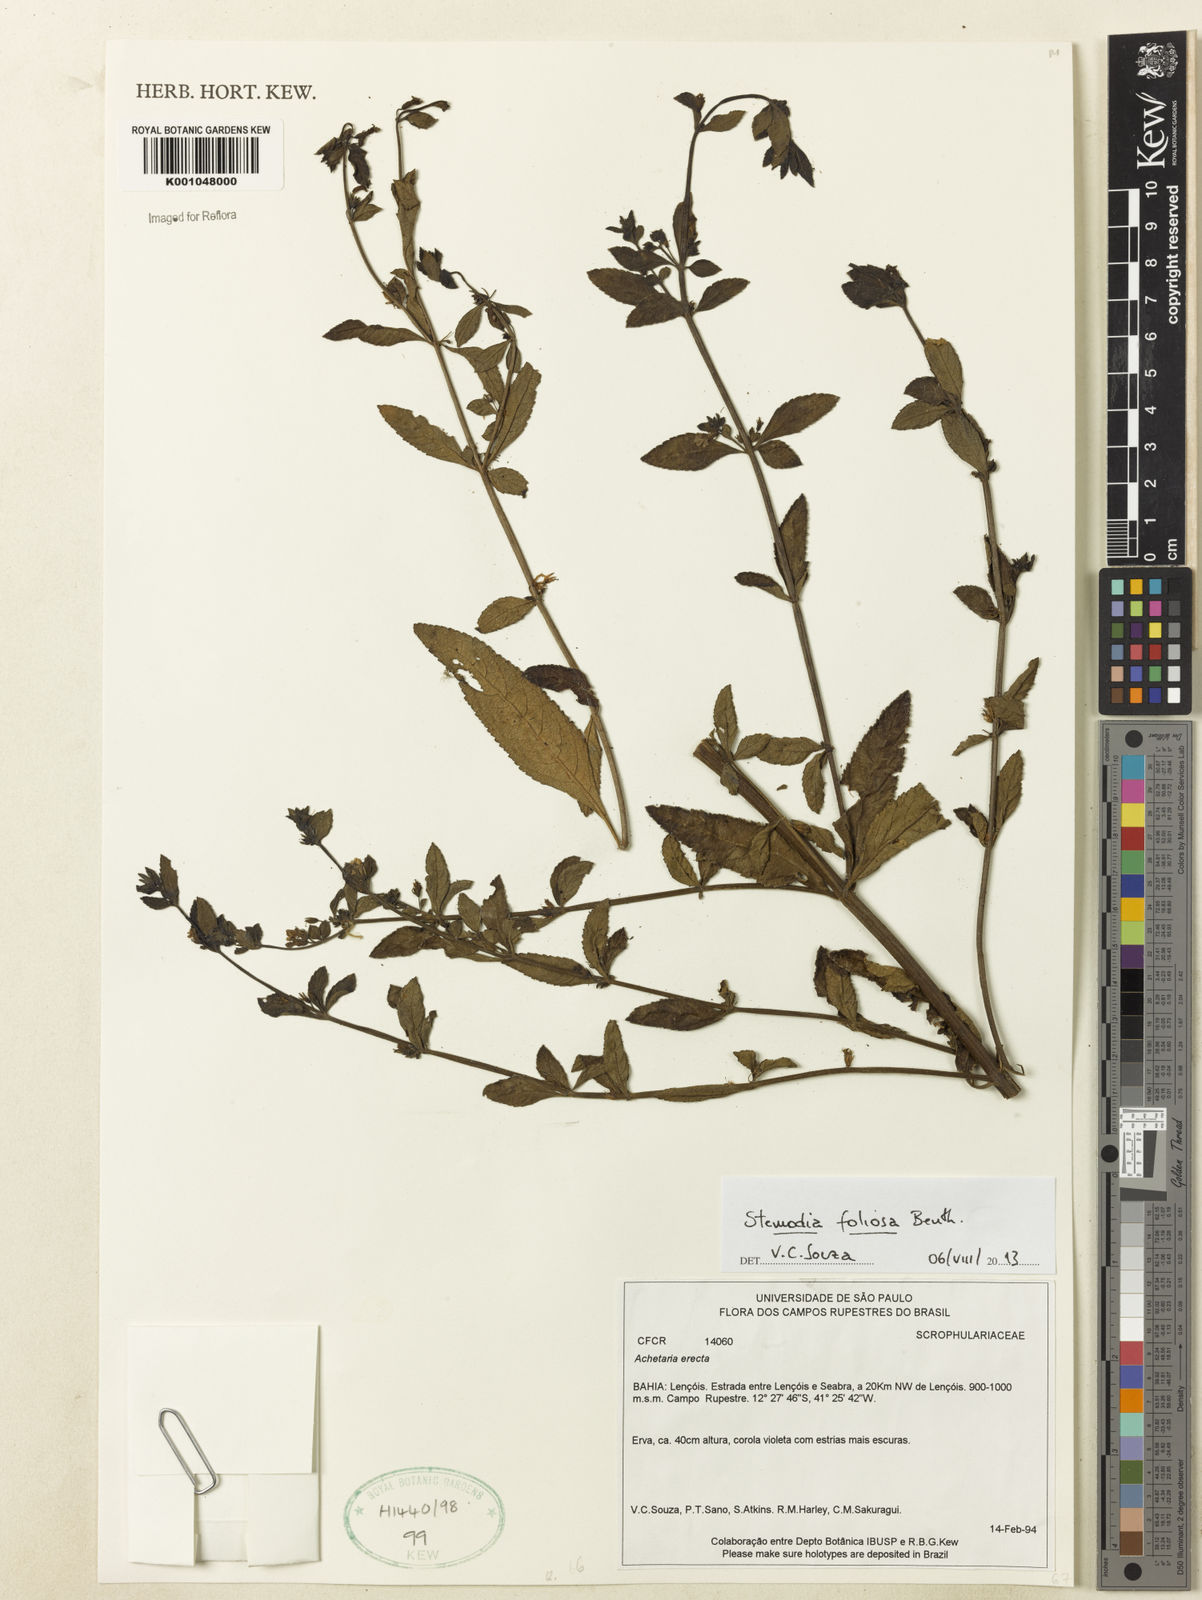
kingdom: Plantae
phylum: Tracheophyta
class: Magnoliopsida
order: Lamiales
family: Plantaginaceae
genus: Stemodia
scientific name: Stemodia foliosa
